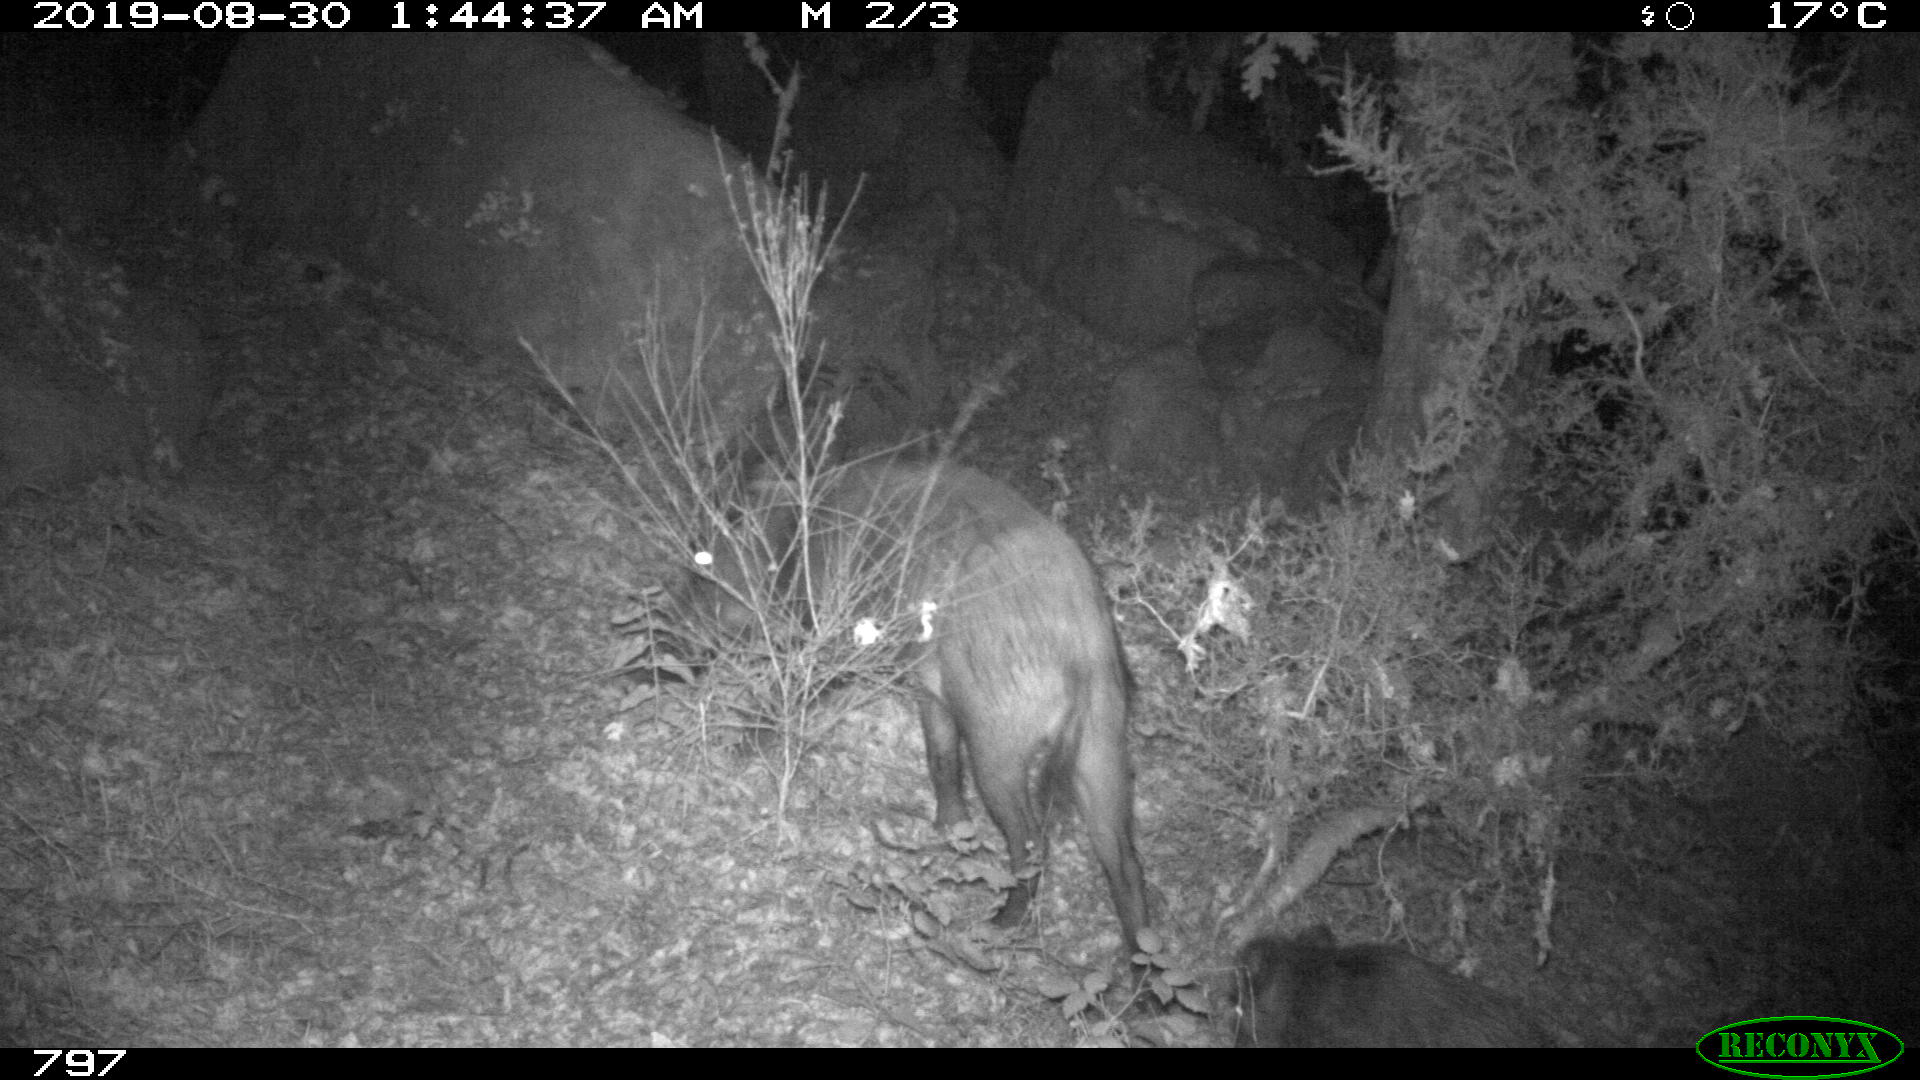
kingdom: Animalia
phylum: Chordata
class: Mammalia
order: Artiodactyla
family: Suidae
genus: Sus
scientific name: Sus scrofa
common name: Wild boar
